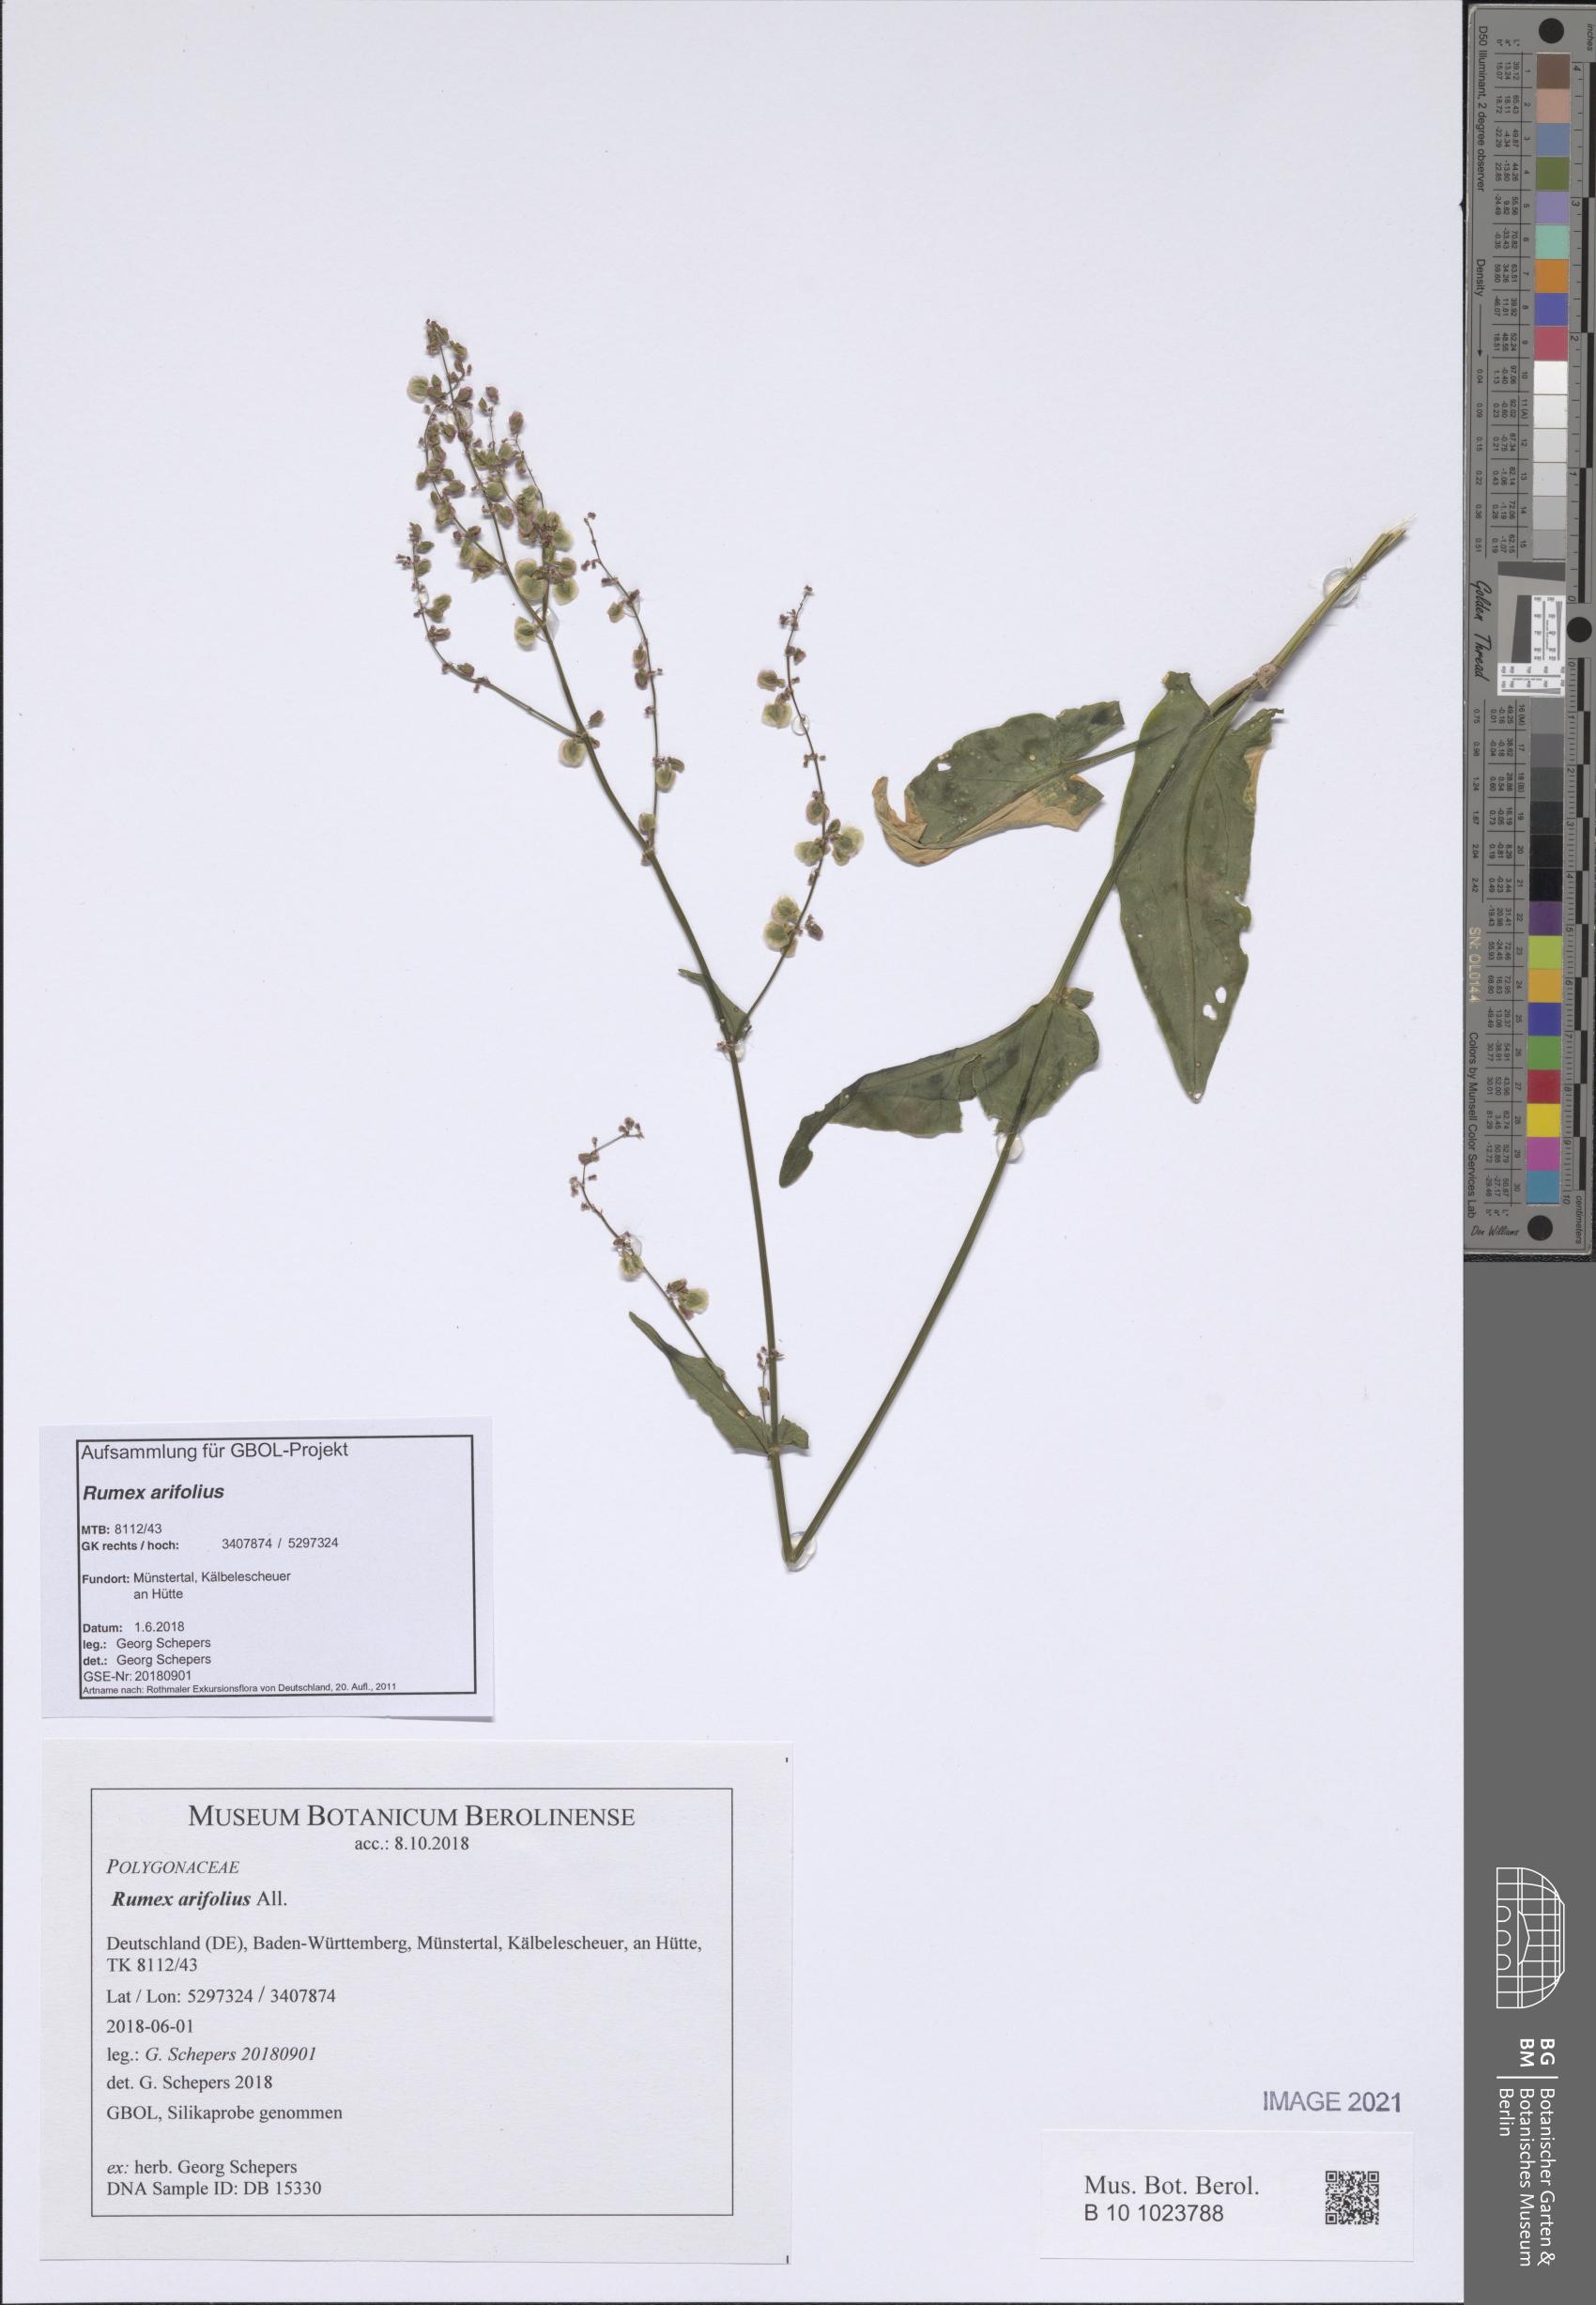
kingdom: Plantae
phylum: Tracheophyta
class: Magnoliopsida
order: Caryophyllales
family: Polygonaceae
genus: Rumex
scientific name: Rumex arifolius
